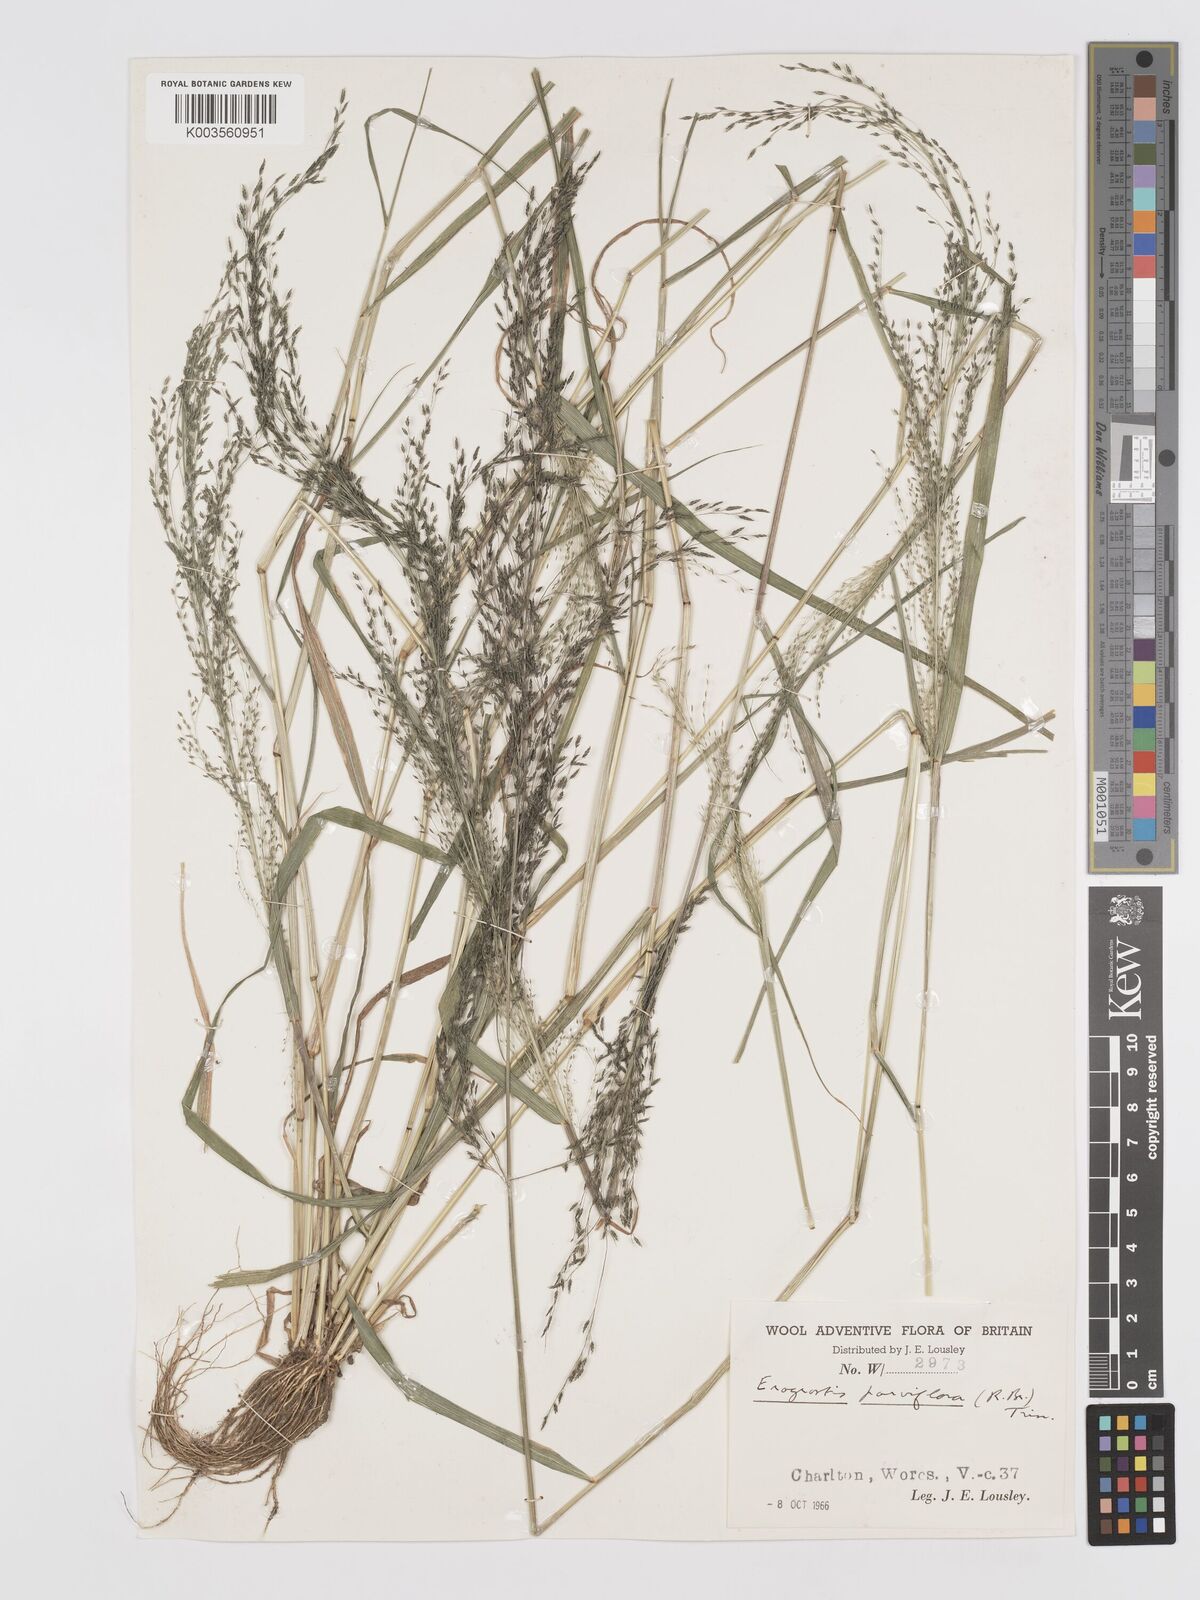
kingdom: Plantae
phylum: Tracheophyta
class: Liliopsida
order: Poales
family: Poaceae
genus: Eragrostis
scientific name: Eragrostis parviflora
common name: Weeping love-grass
